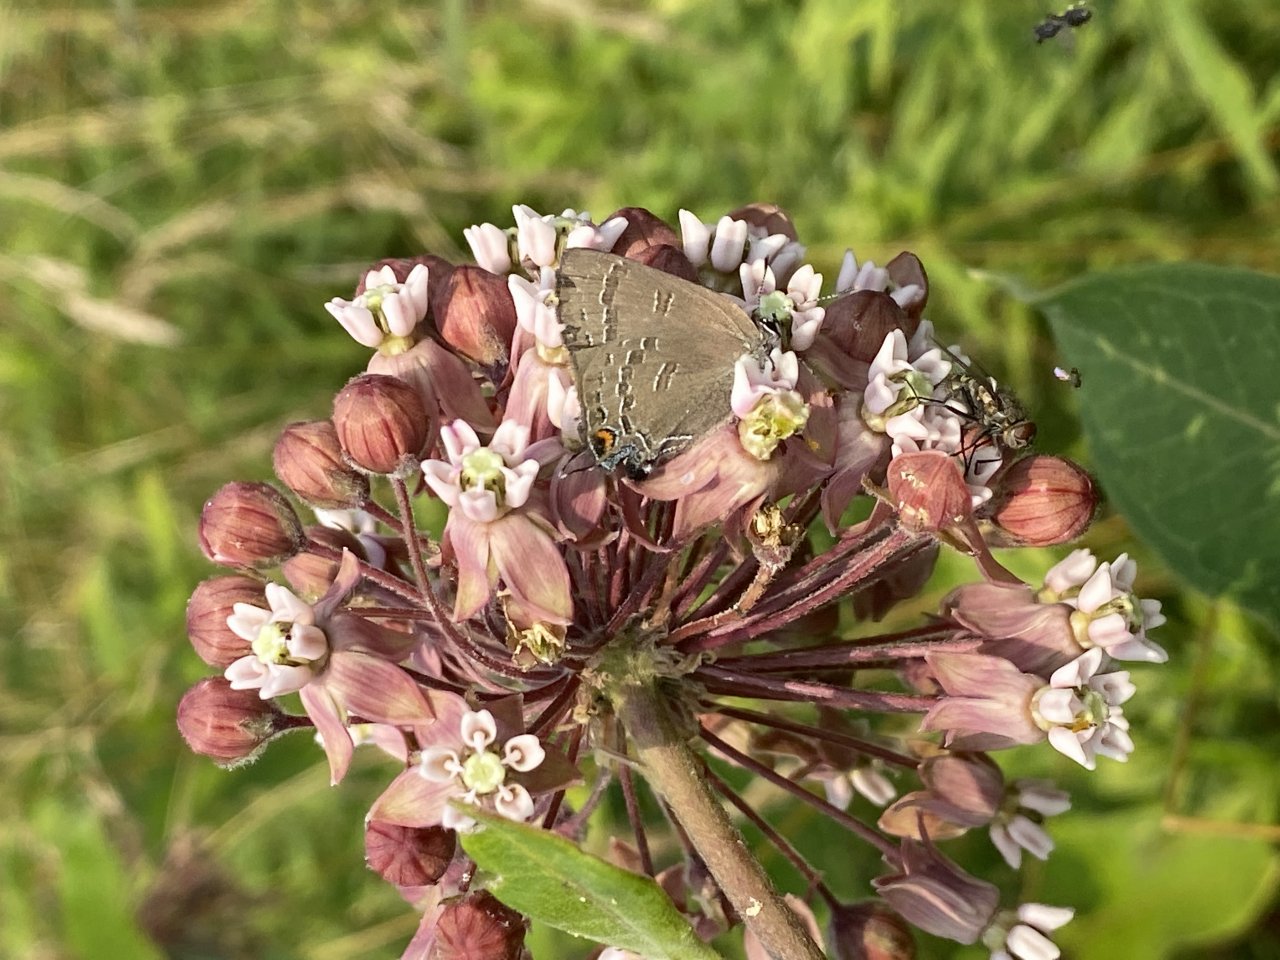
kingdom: Animalia
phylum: Arthropoda
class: Insecta
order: Lepidoptera
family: Lycaenidae
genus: Satyrium
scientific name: Satyrium calanus
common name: Banded Hairstreak
